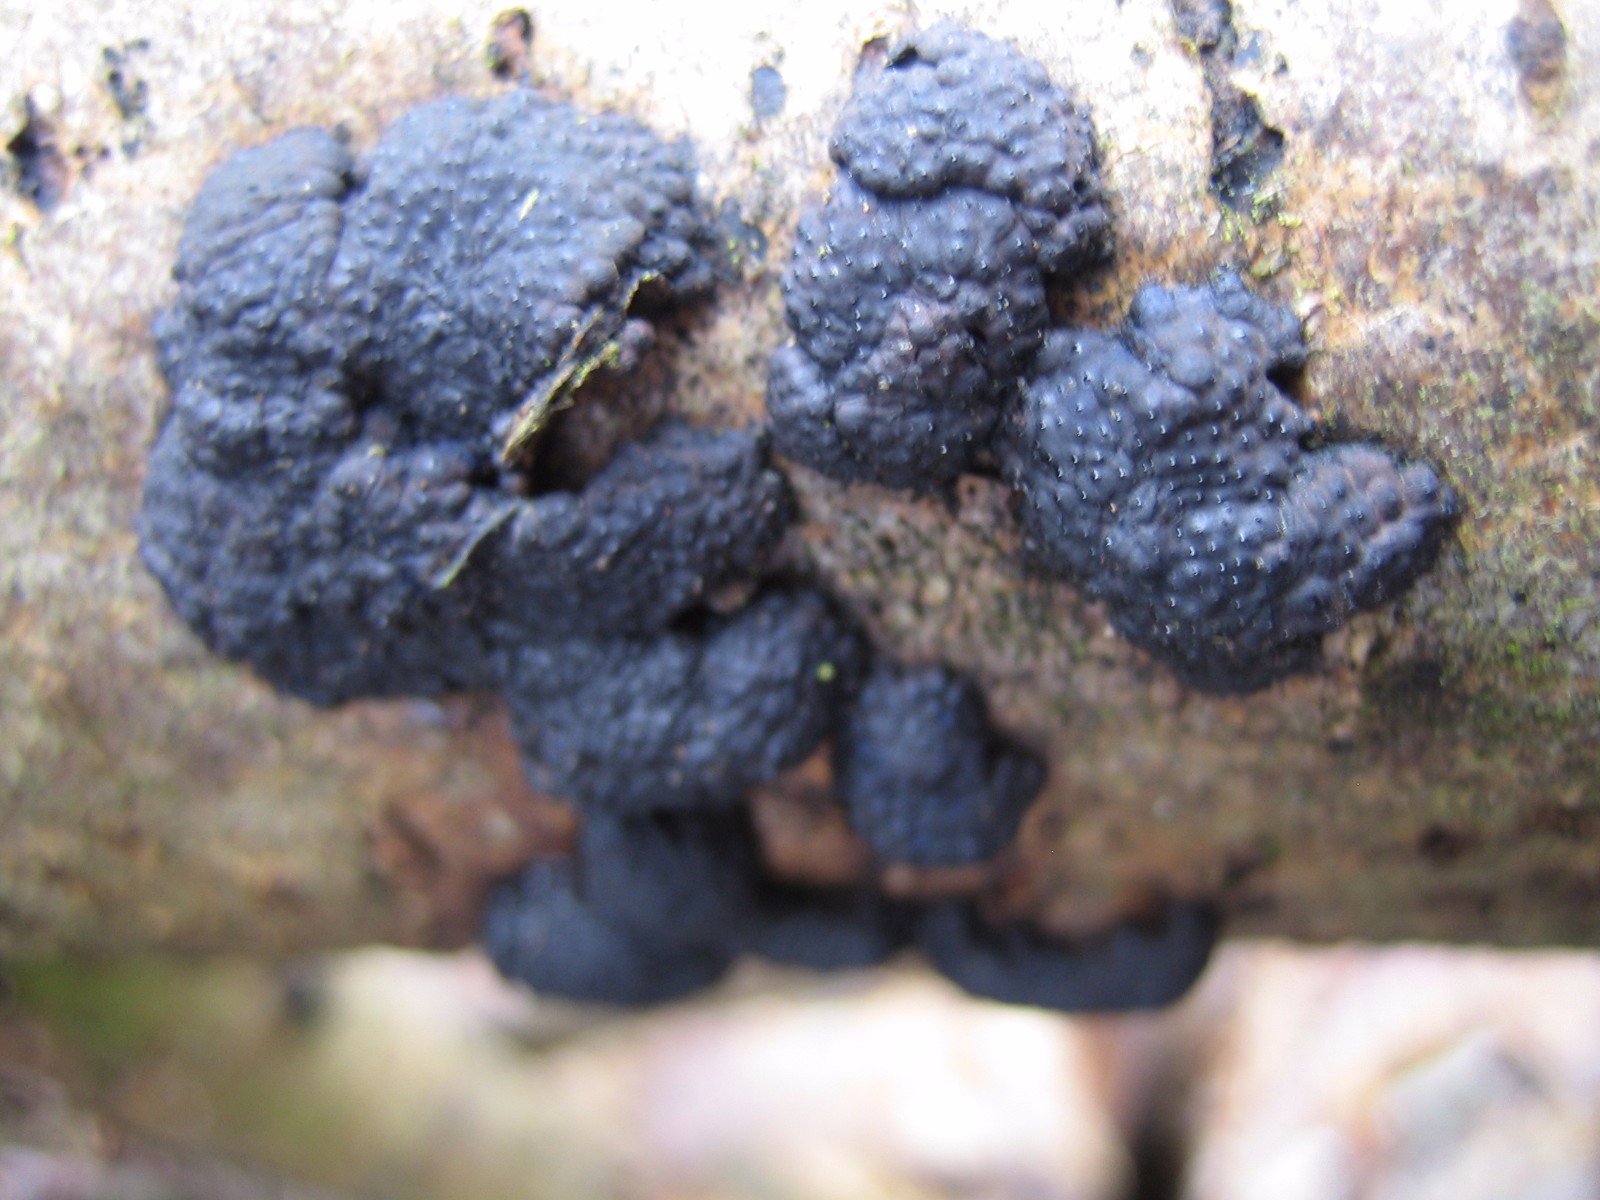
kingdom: Fungi
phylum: Ascomycota
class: Sordariomycetes
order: Xylariales
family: Hypoxylaceae
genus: Jackrogersella
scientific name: Jackrogersella multiformis
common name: foranderlig kulbær
